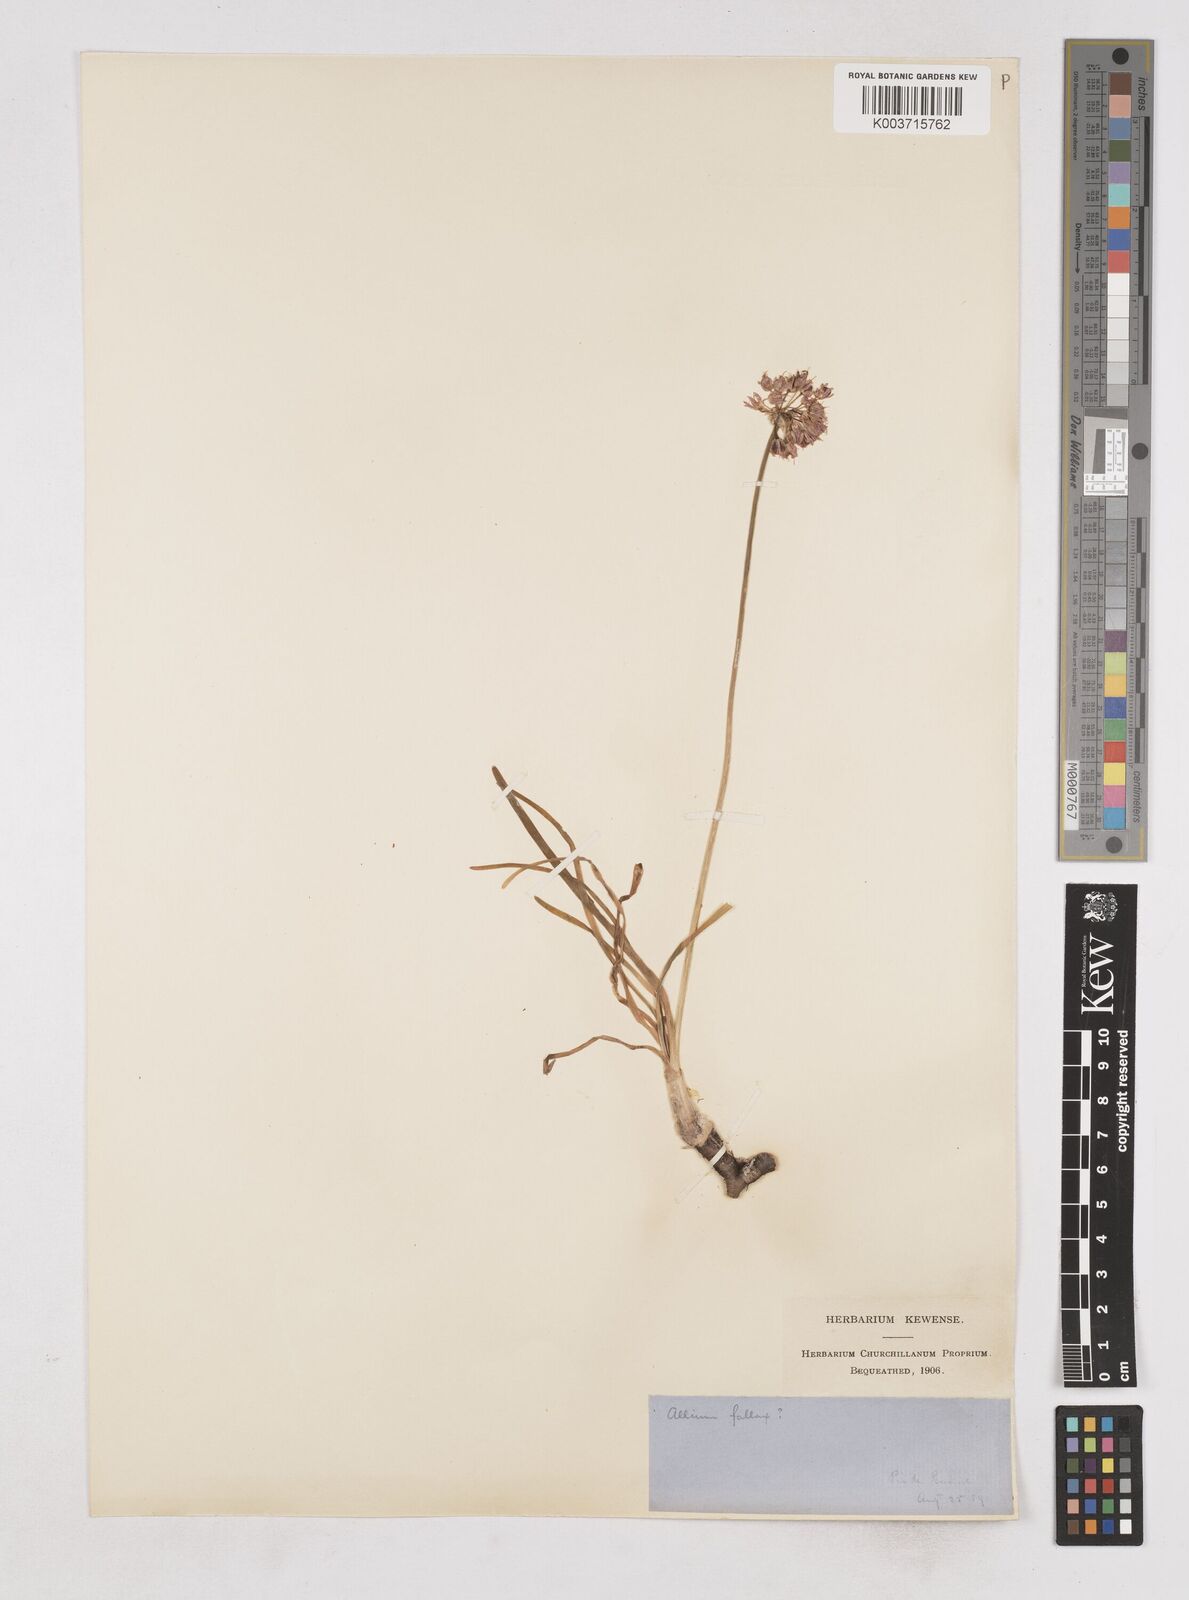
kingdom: Plantae
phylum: Tracheophyta
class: Liliopsida
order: Asparagales
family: Amaryllidaceae
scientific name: Amaryllidaceae
